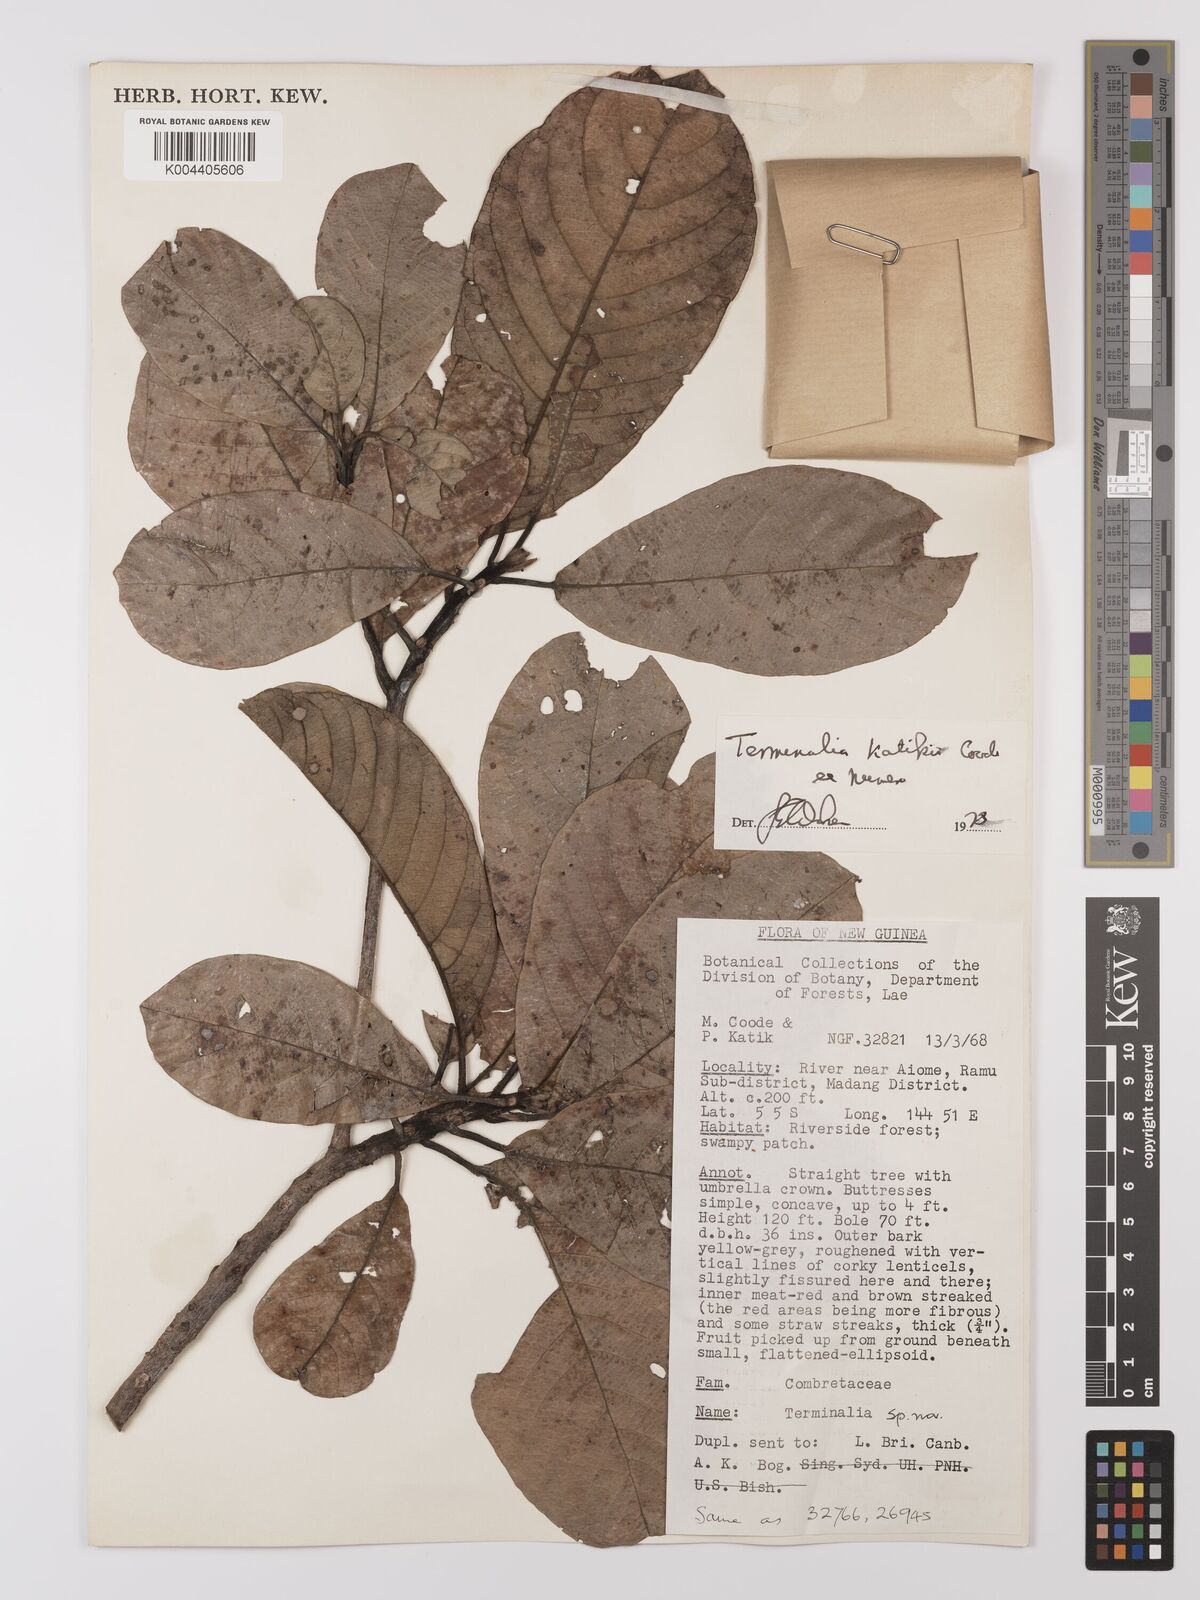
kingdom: Plantae
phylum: Tracheophyta
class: Magnoliopsida
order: Myrtales
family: Combretaceae
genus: Terminalia
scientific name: Terminalia katikii
